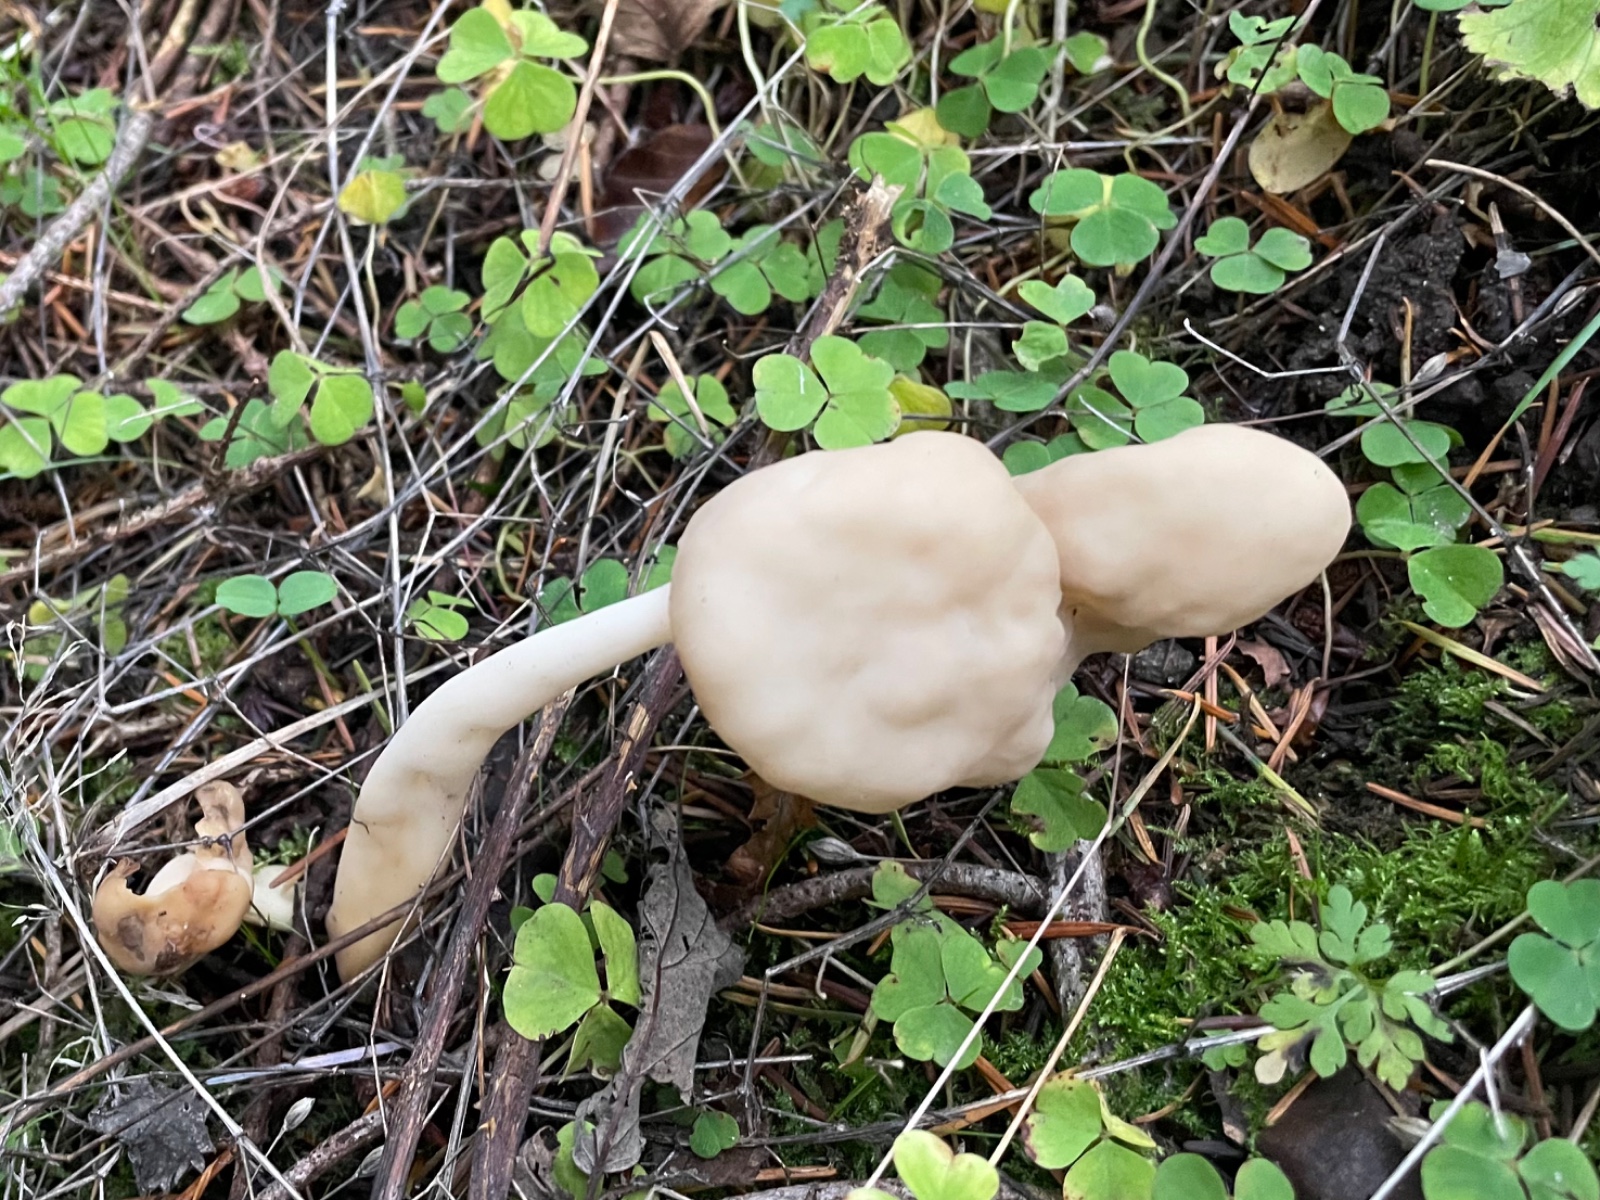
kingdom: Fungi
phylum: Ascomycota
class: Pezizomycetes
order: Pezizales
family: Helvellaceae
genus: Helvella
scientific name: Helvella elastica
